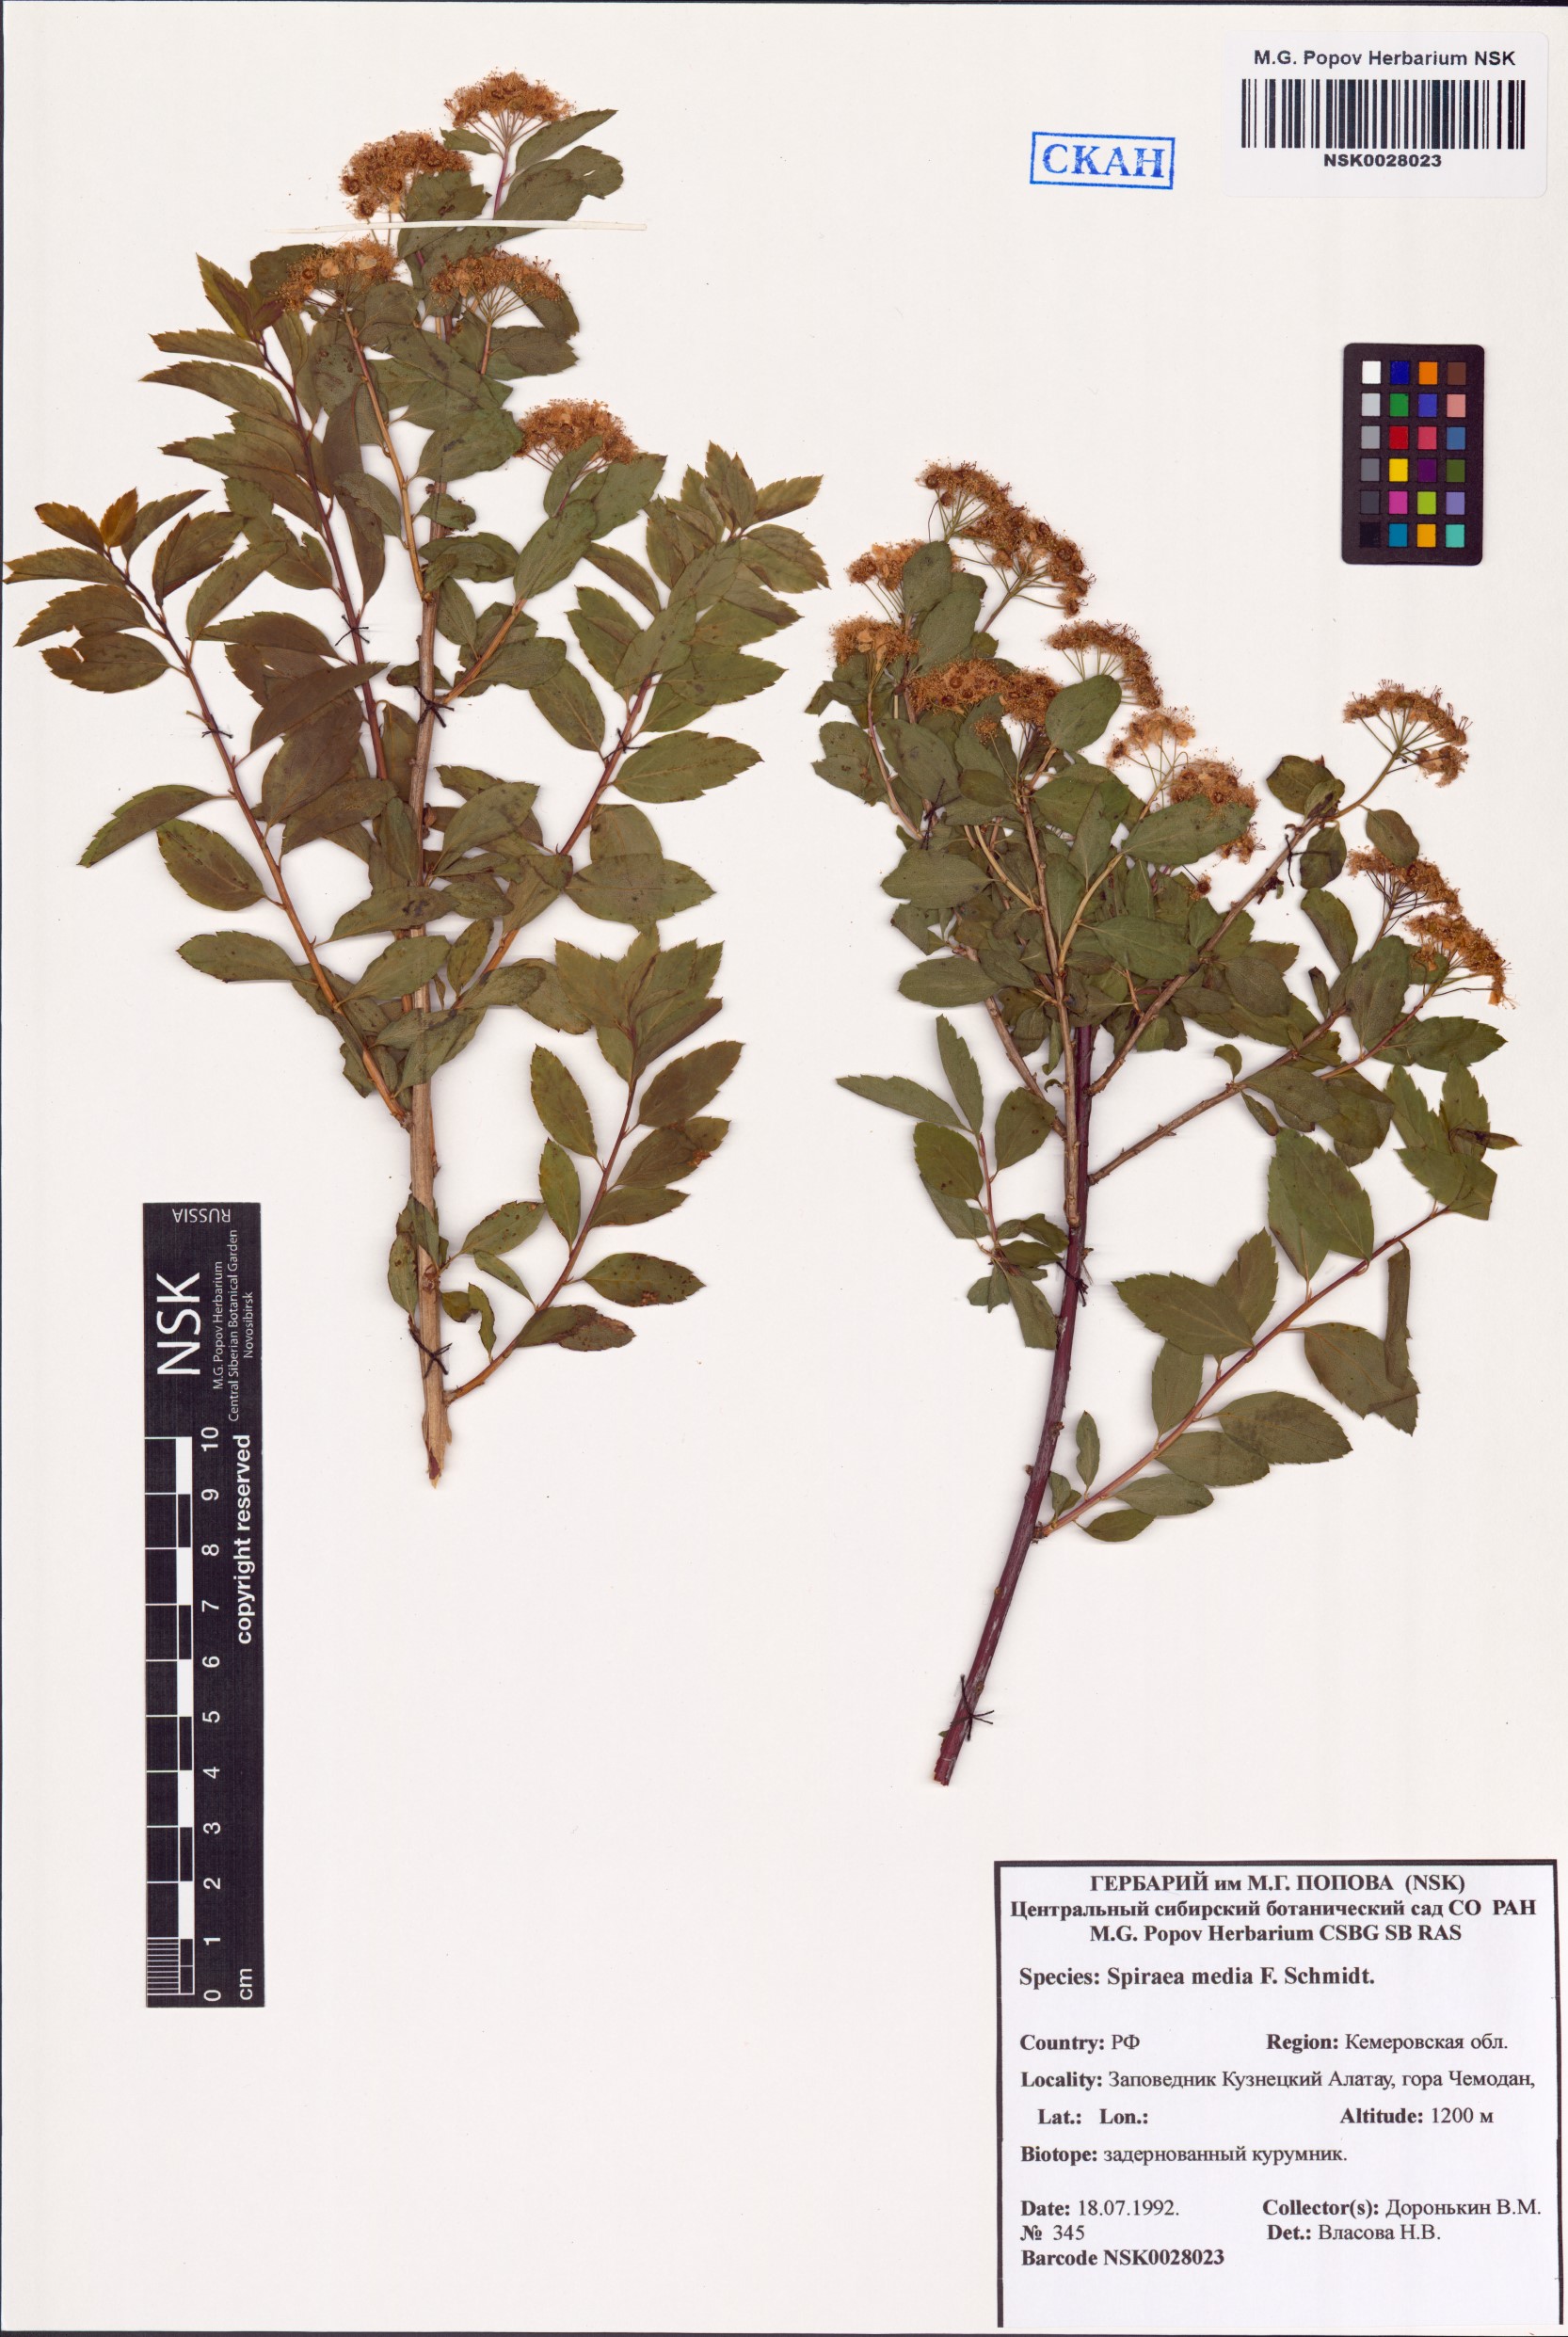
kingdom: Plantae
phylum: Tracheophyta
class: Magnoliopsida
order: Rosales
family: Rosaceae
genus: Spiraea
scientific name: Spiraea media
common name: Russian spiraea
